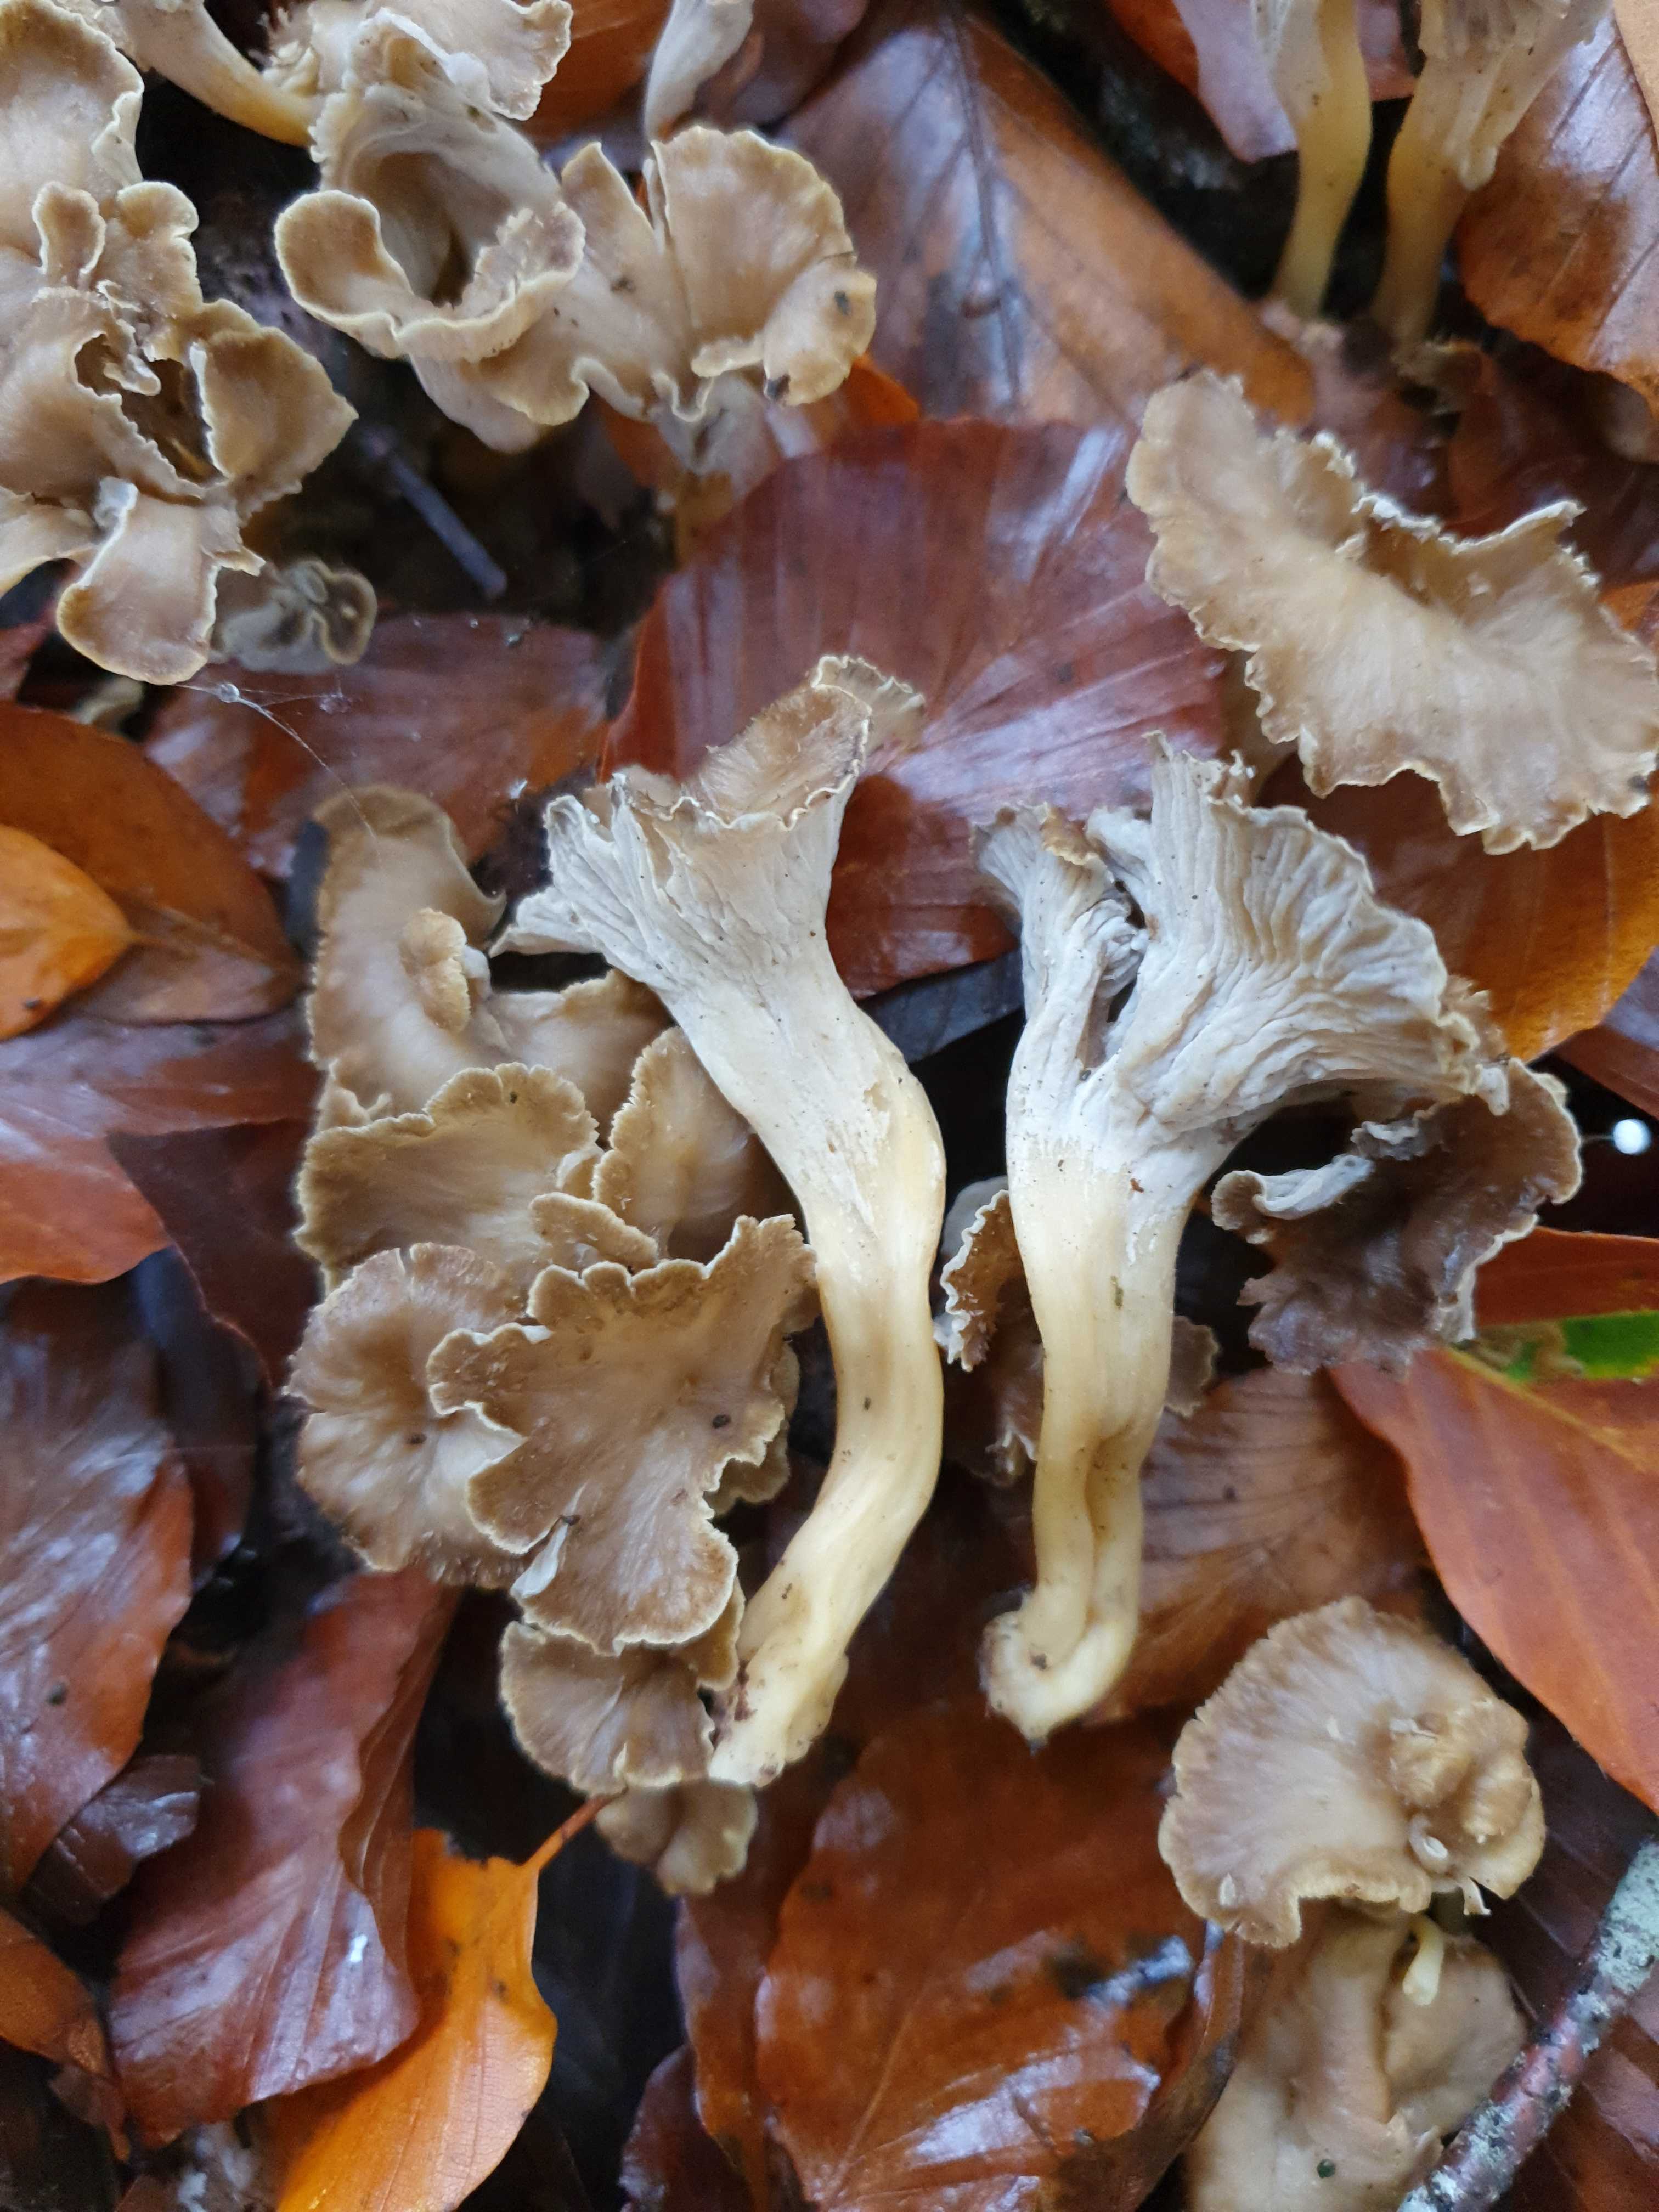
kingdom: Fungi
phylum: Basidiomycota
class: Agaricomycetes
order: Cantharellales
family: Hydnaceae
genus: Craterellus
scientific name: Craterellus undulatus
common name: liden kantarel
